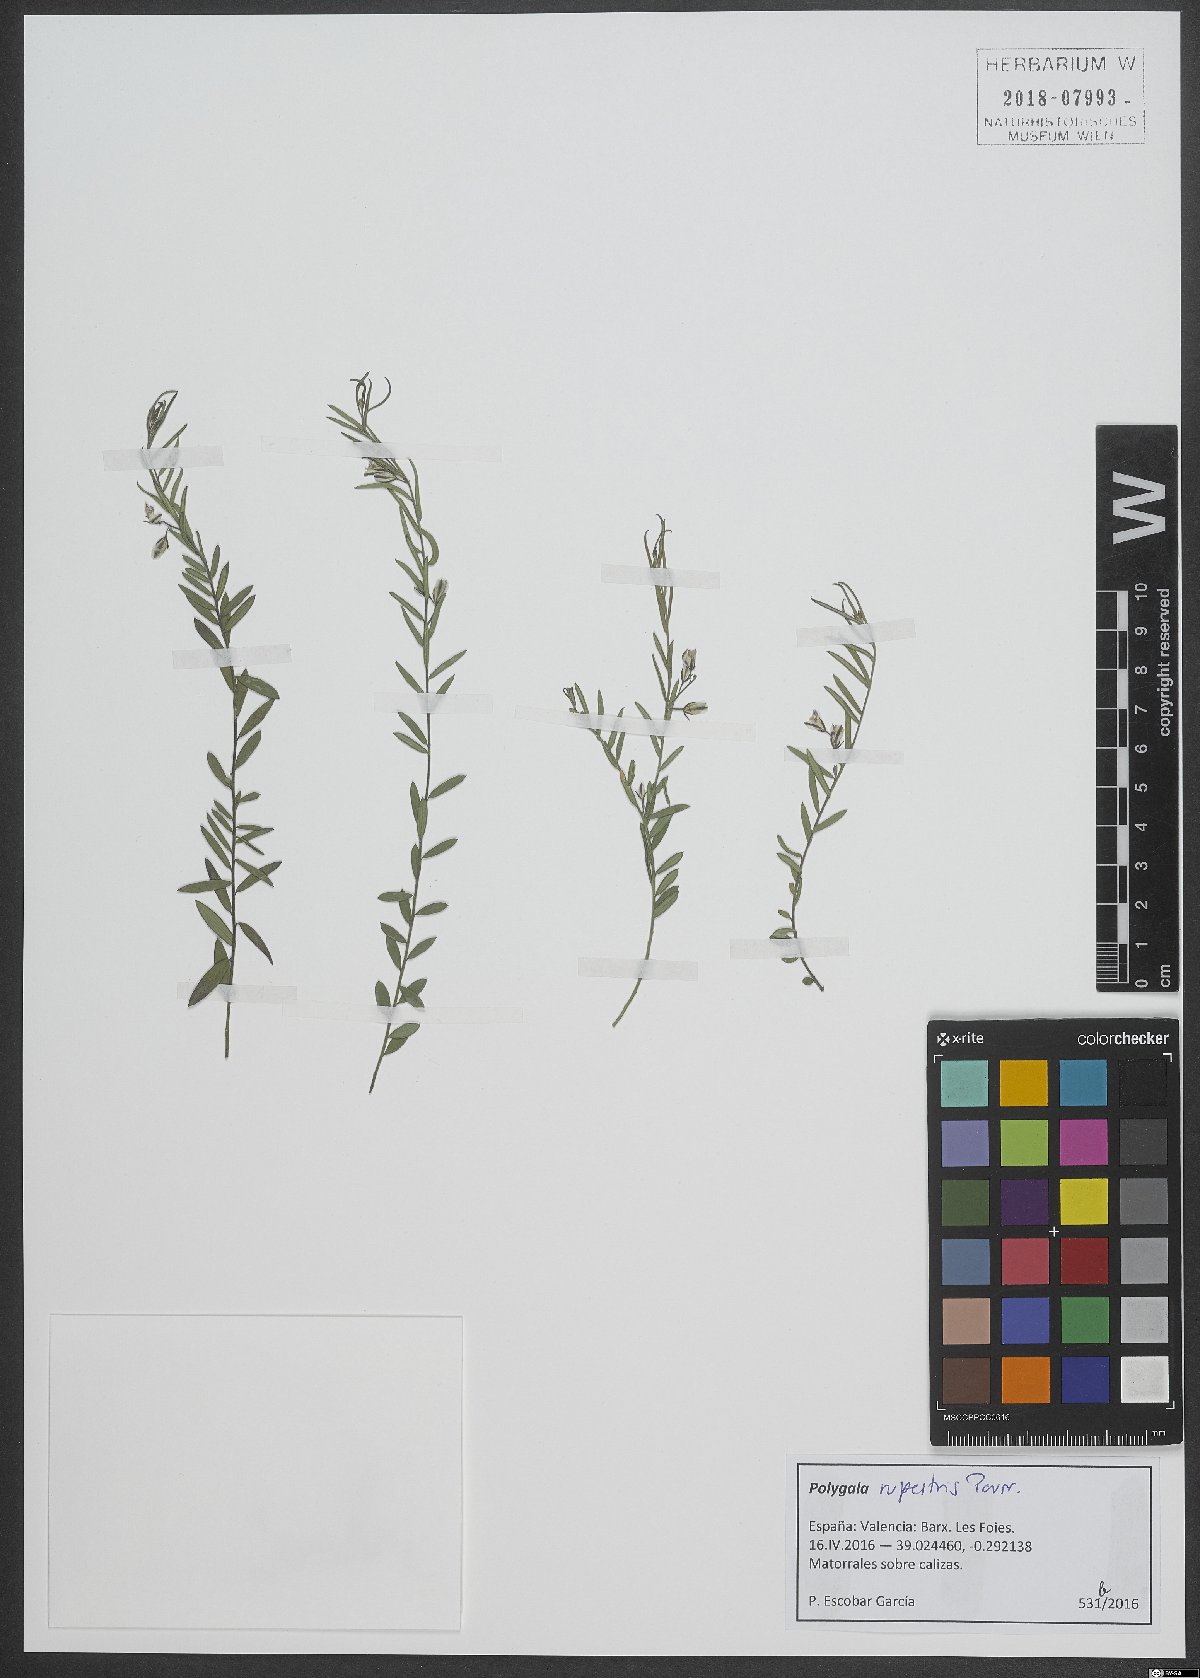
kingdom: Plantae
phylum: Tracheophyta
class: Magnoliopsida
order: Fabales
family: Polygalaceae
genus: Polygala
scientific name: Polygala rupestris
